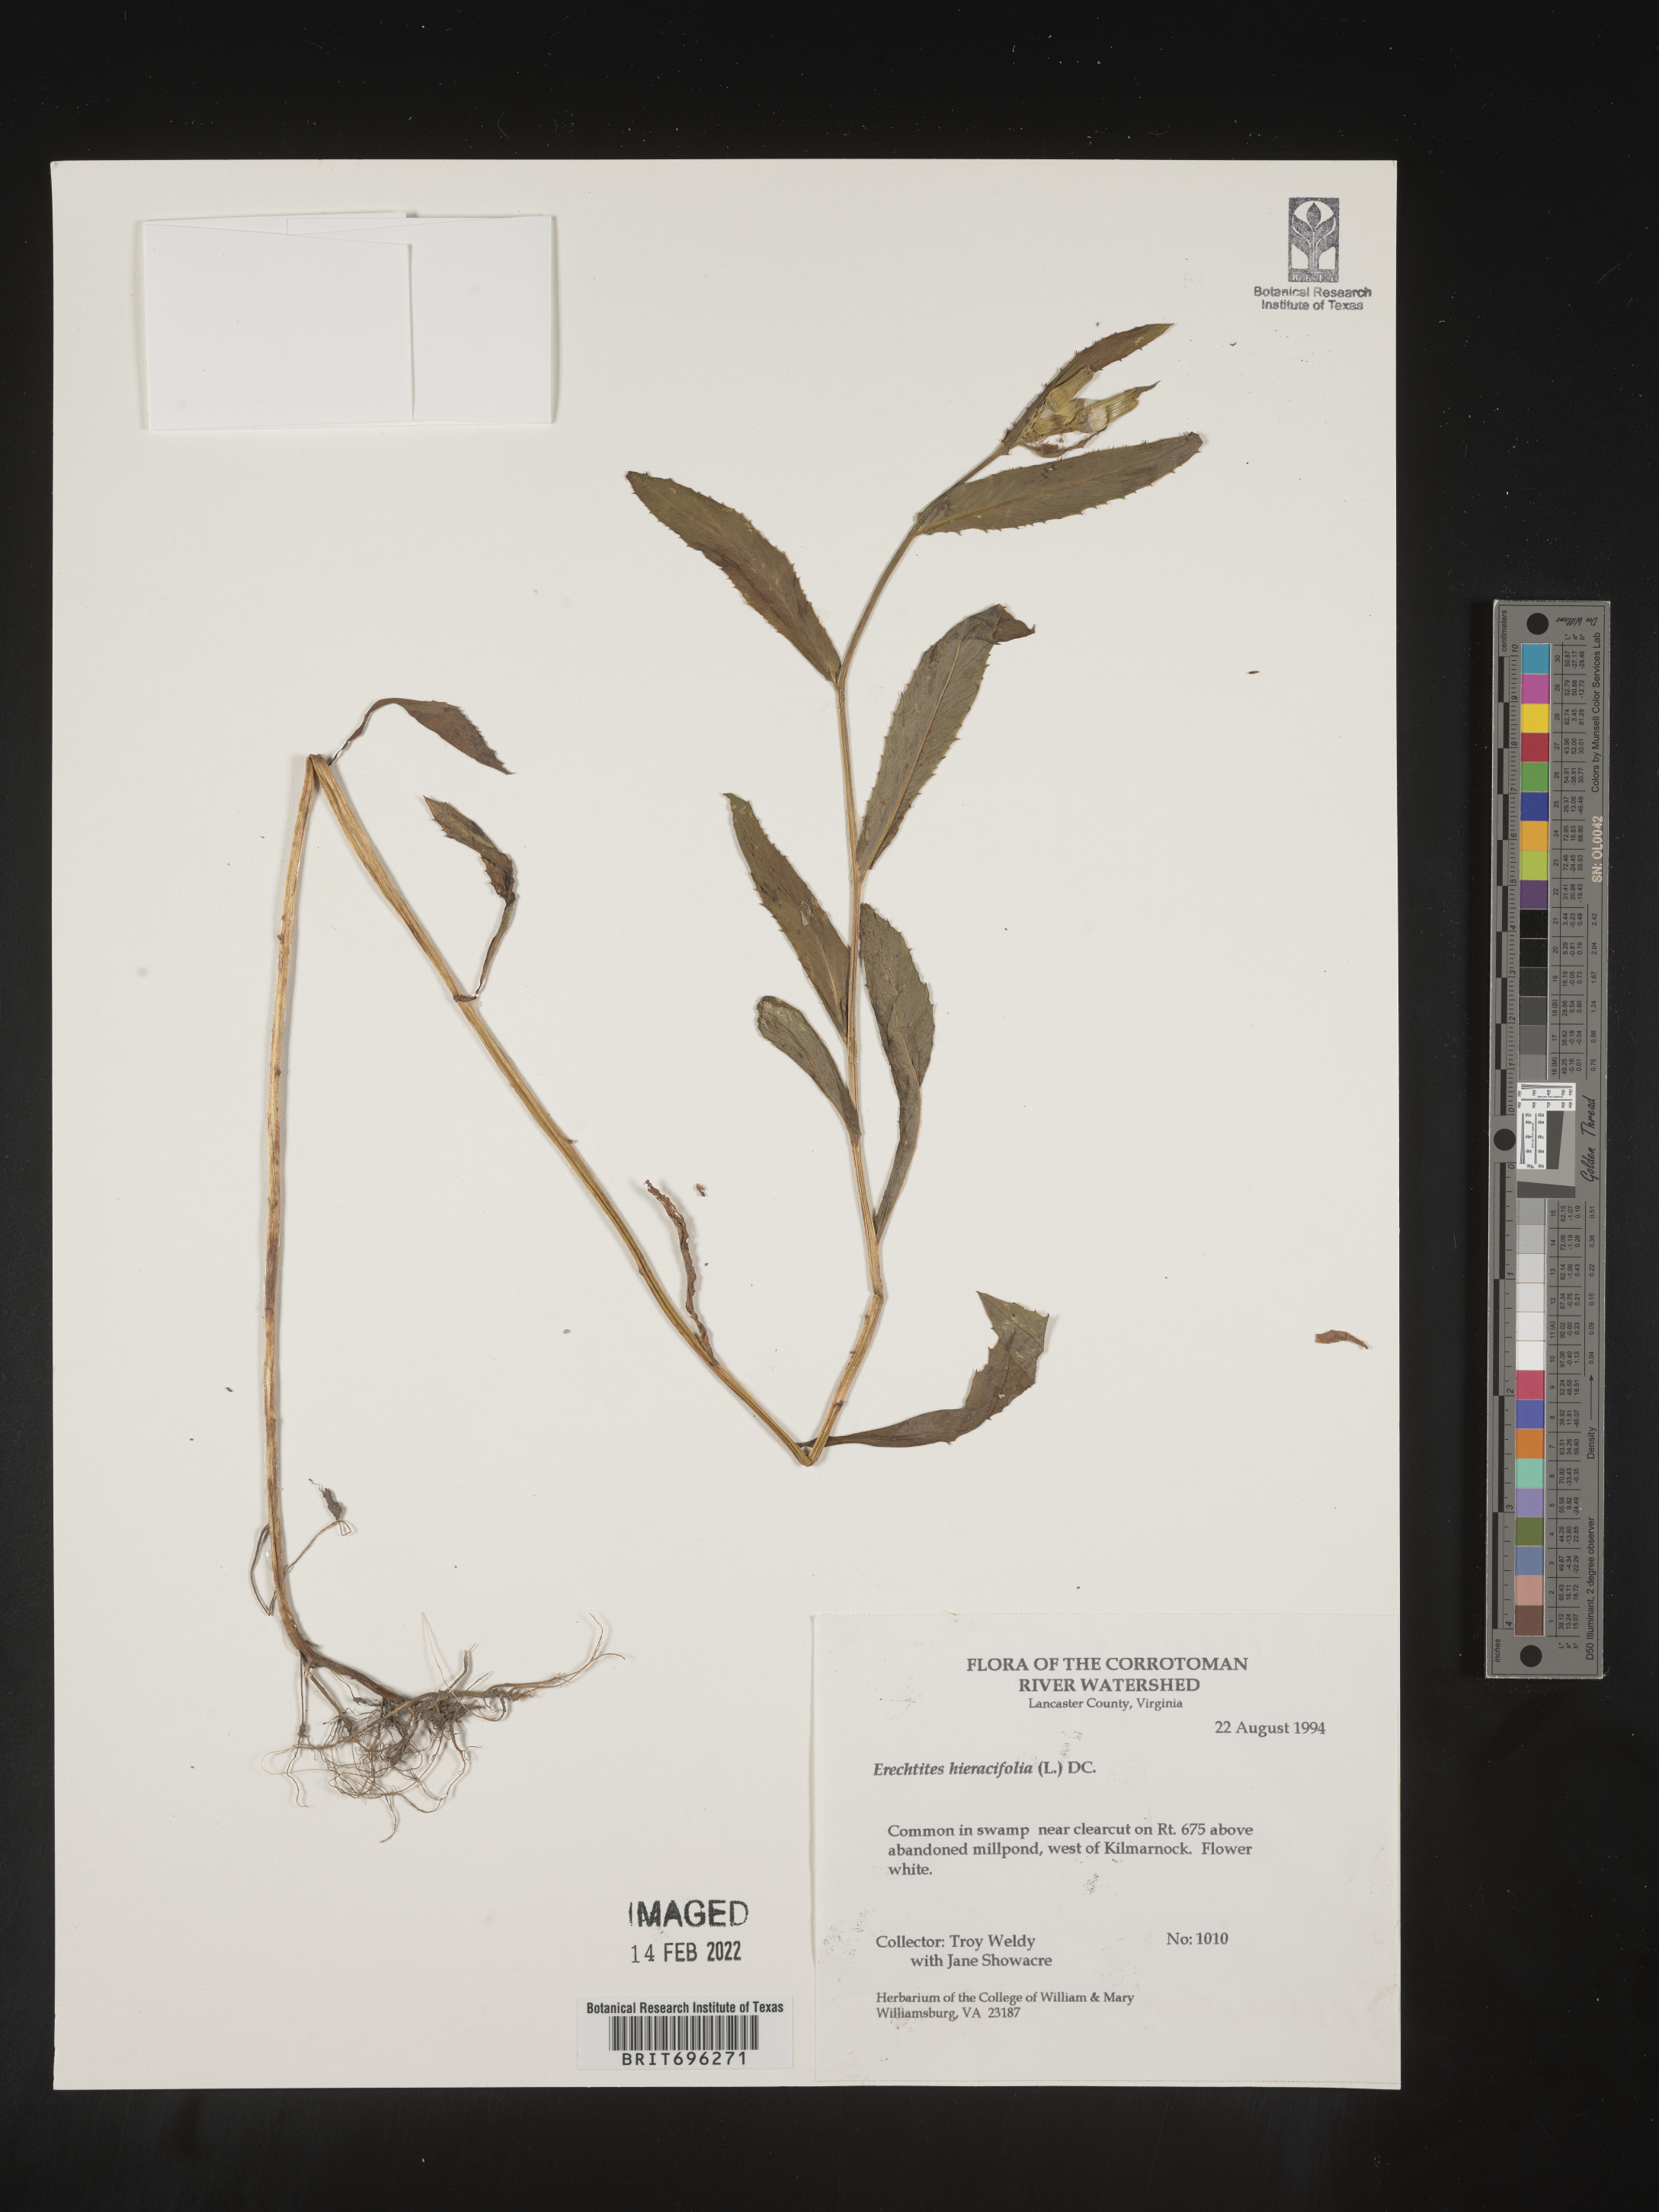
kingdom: Plantae
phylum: Tracheophyta
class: Magnoliopsida
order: Asterales
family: Asteraceae
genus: Erechtites
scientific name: Erechtites hieraciifolius
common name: American burnweed
